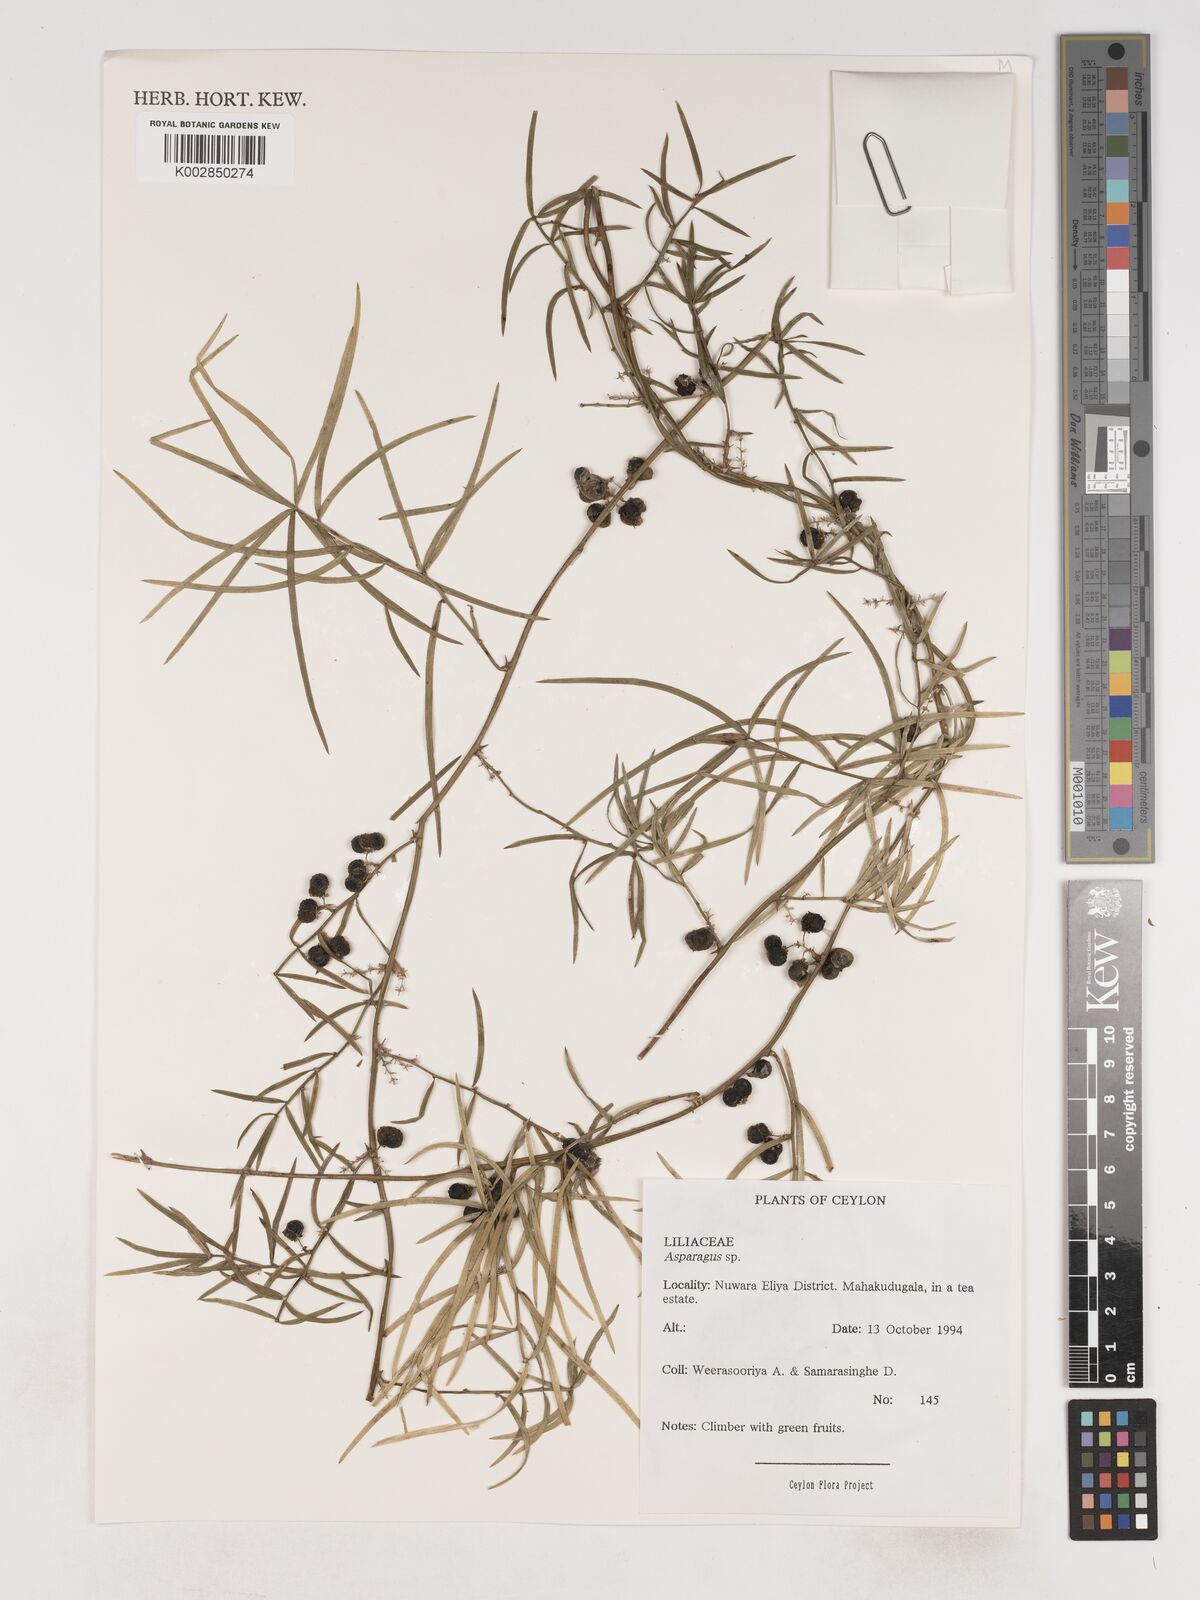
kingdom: Plantae
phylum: Tracheophyta
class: Liliopsida
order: Asparagales
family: Asparagaceae
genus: Asparagus
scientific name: Asparagus
